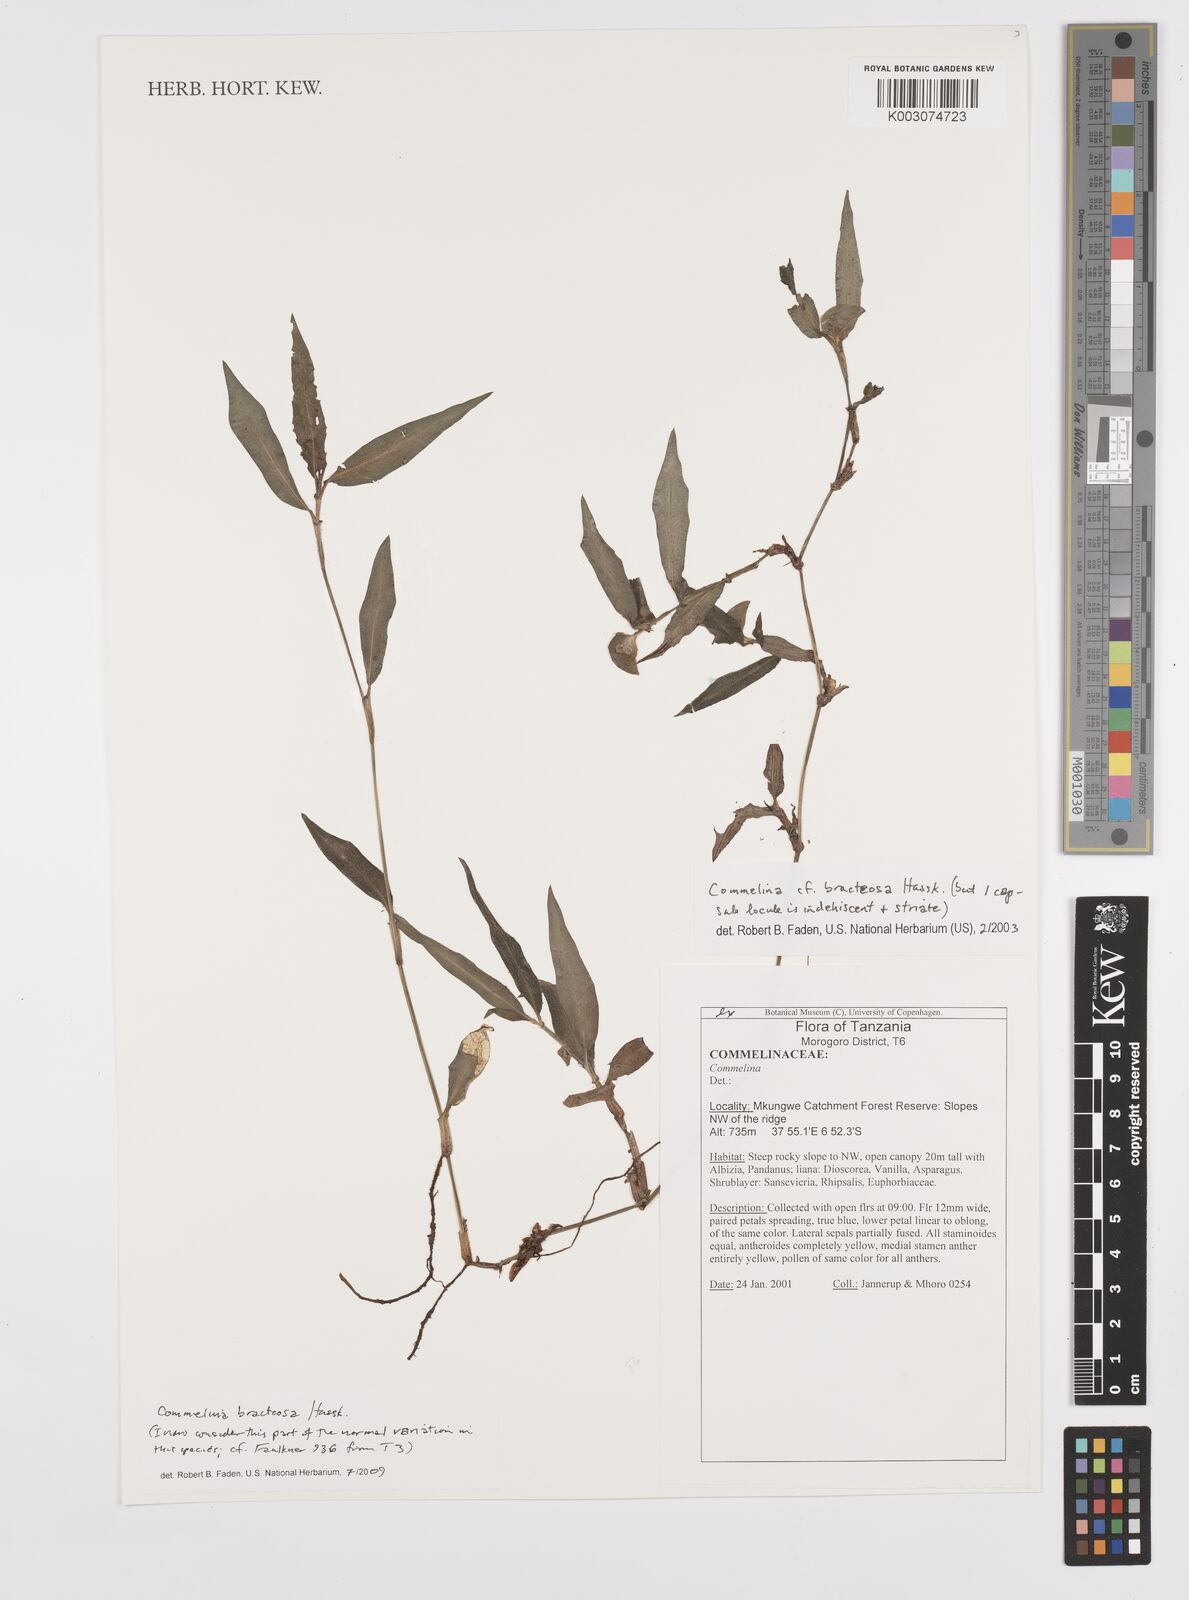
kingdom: Plantae
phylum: Tracheophyta
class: Liliopsida
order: Commelinales
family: Commelinaceae
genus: Commelina
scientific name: Commelina bracteosa
